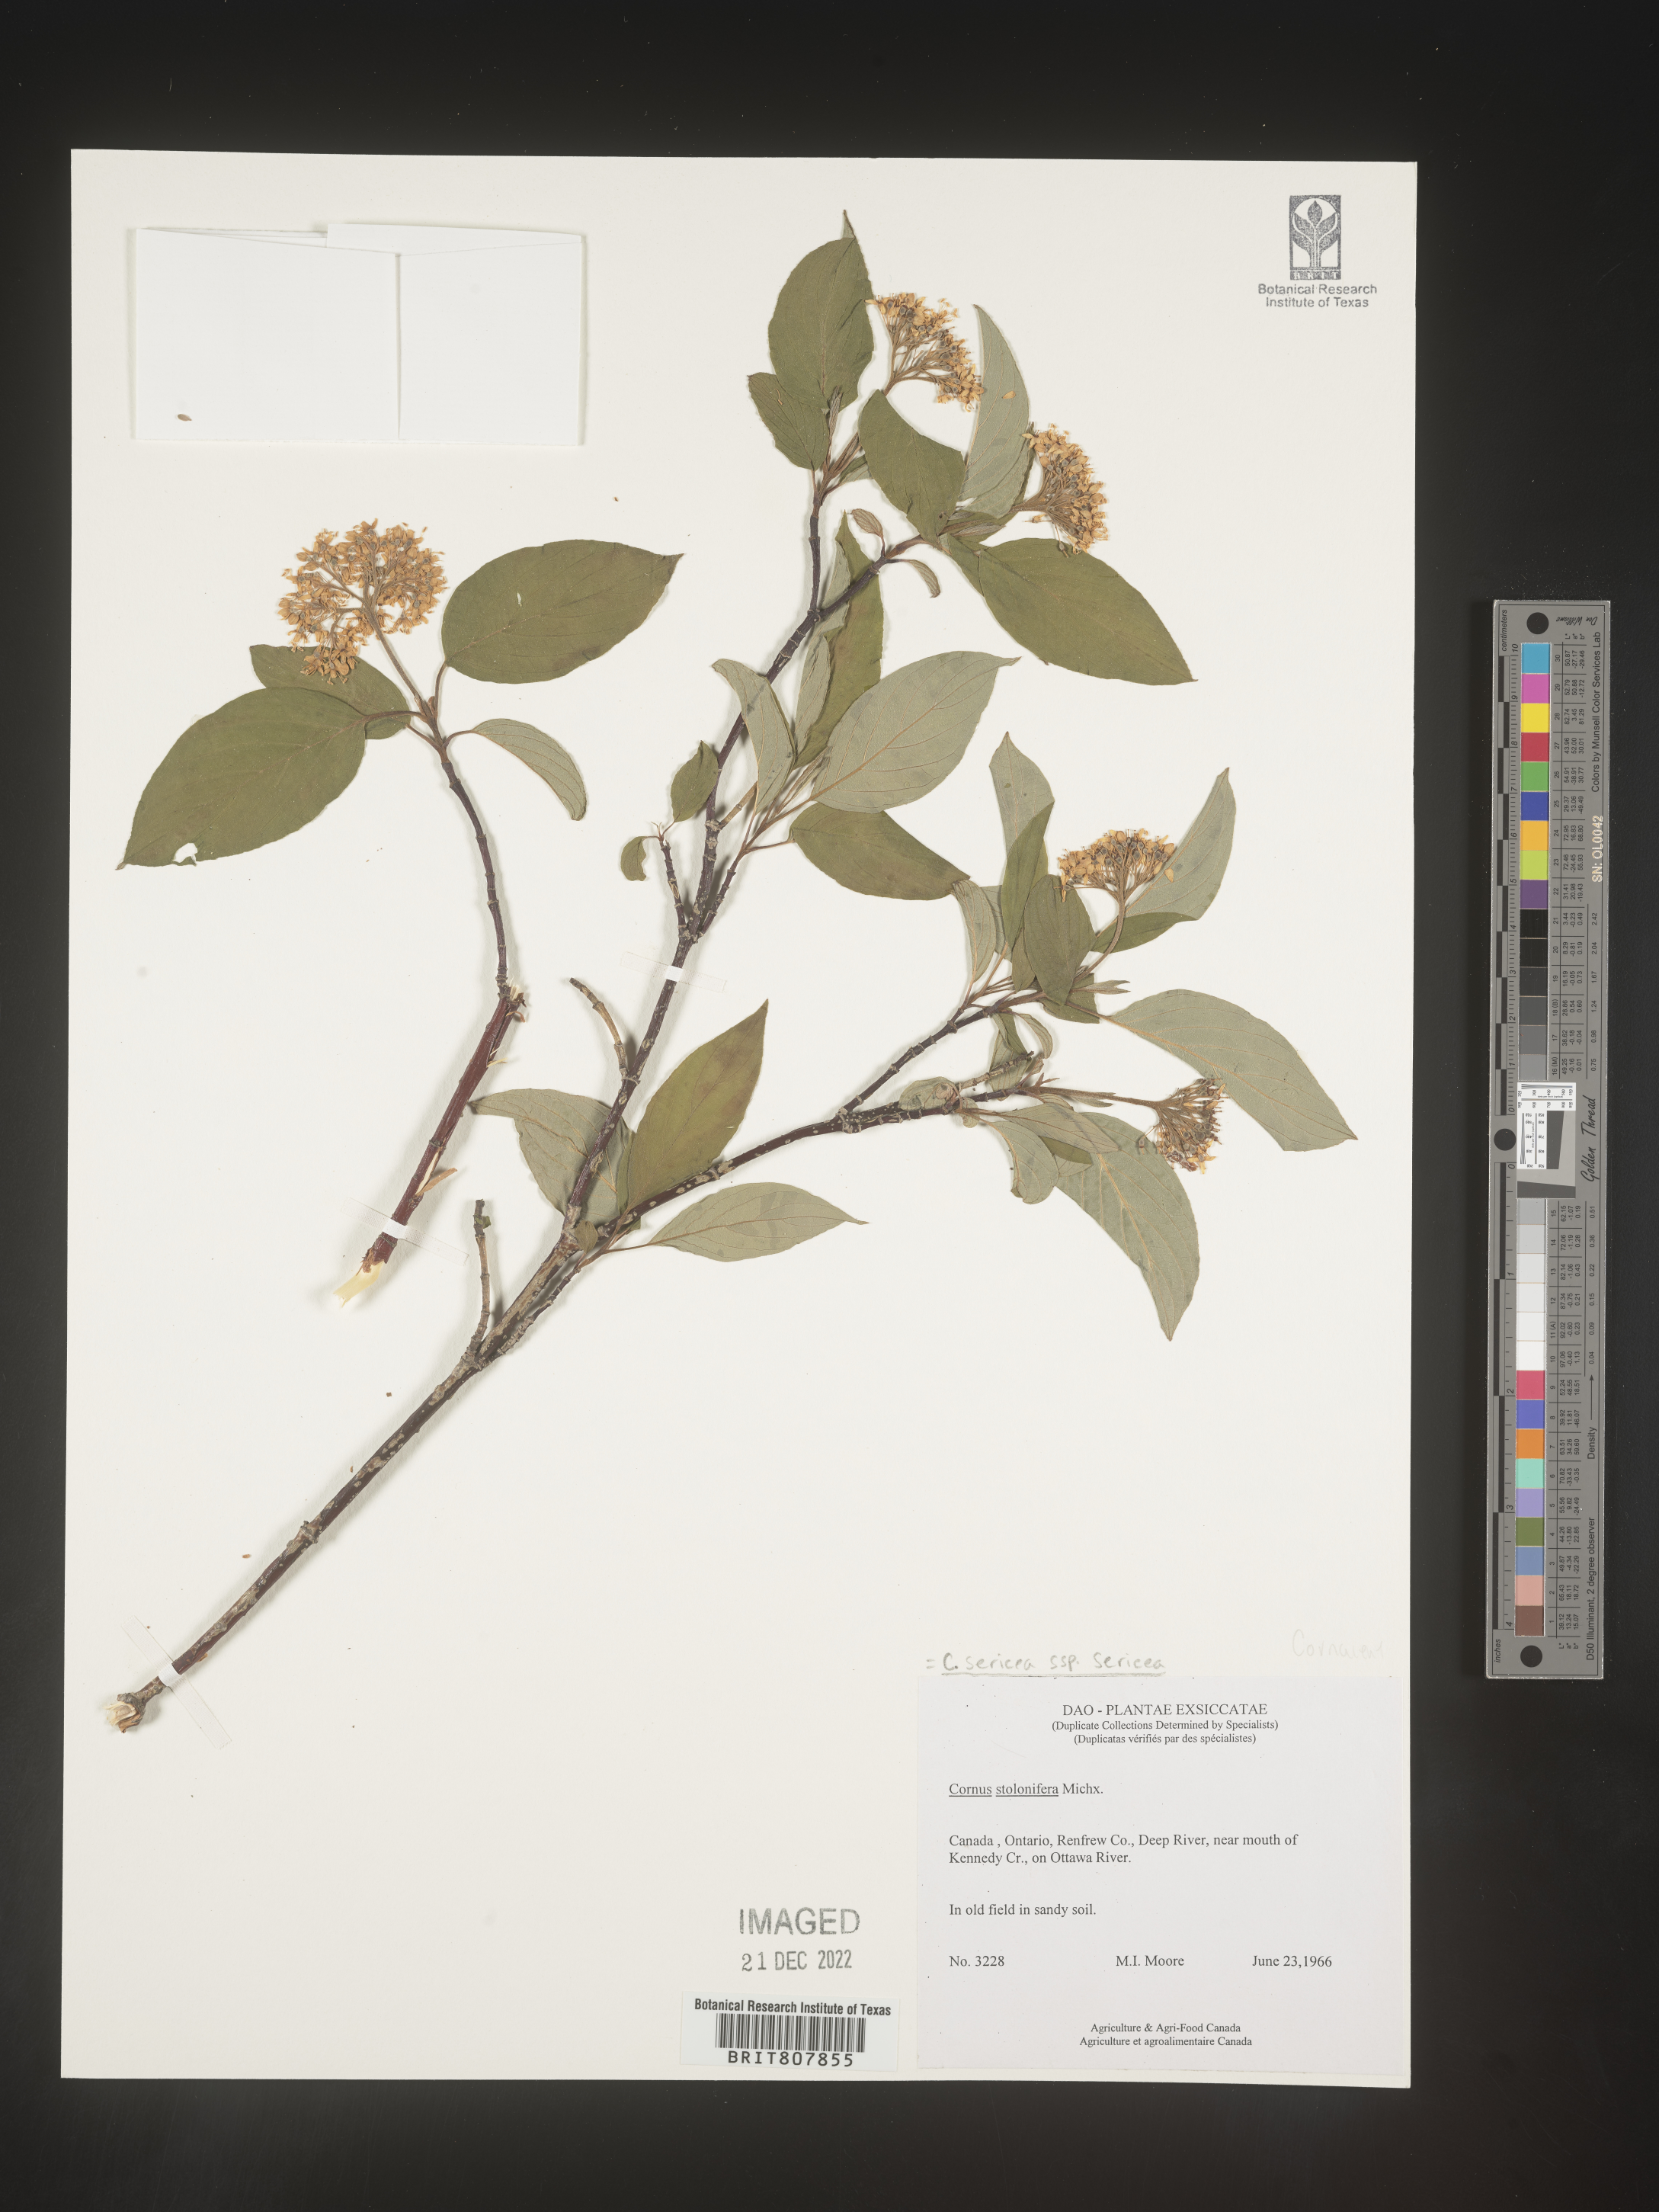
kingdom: Plantae
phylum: Tracheophyta
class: Magnoliopsida
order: Cornales
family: Cornaceae
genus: Cornus
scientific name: Cornus
